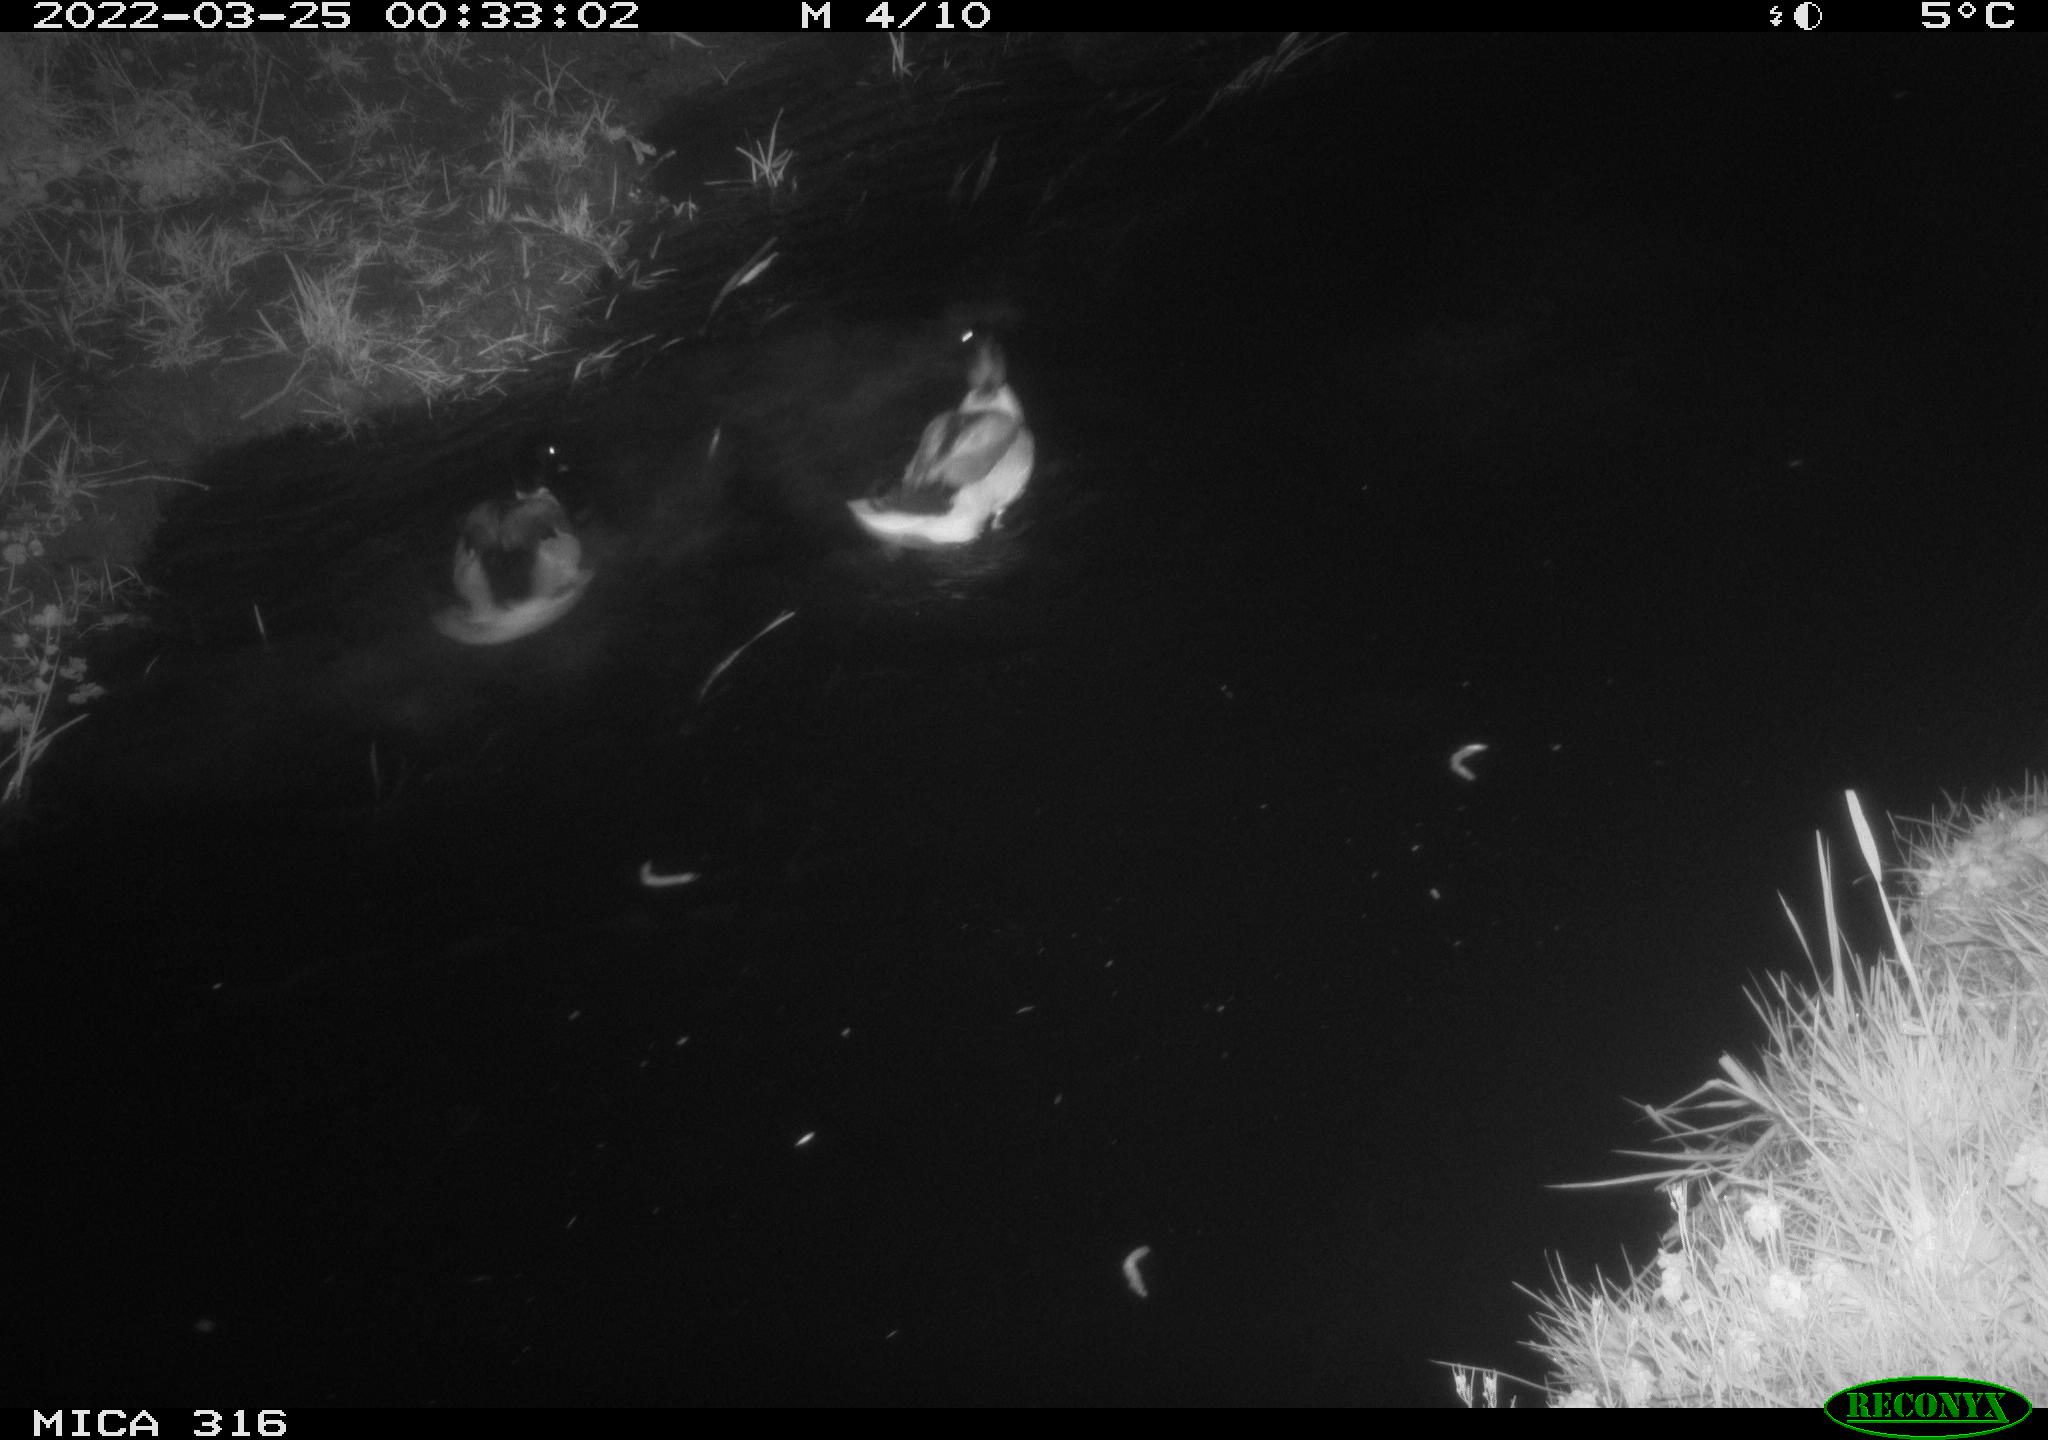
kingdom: Animalia
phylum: Chordata
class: Aves
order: Anseriformes
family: Anatidae
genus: Anas
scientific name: Anas platyrhynchos
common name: Mallard
